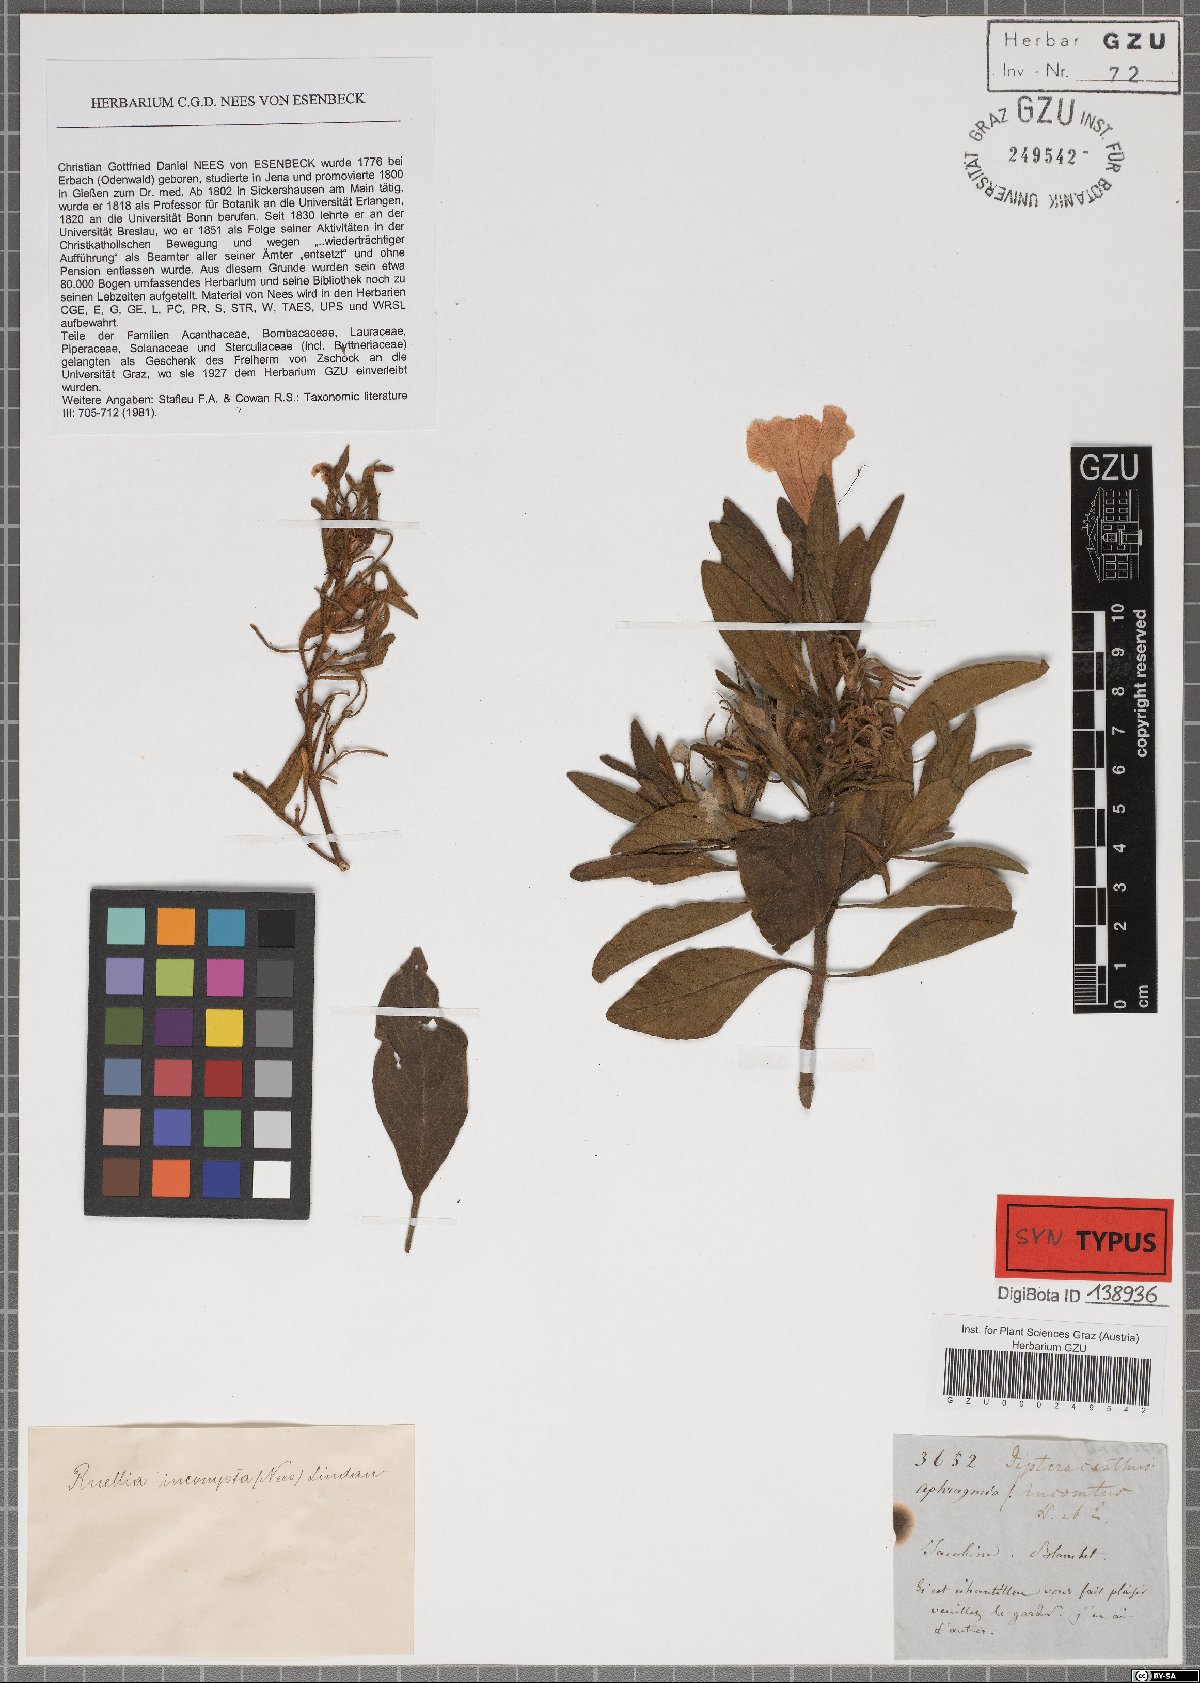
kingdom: Plantae
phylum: Tracheophyta
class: Magnoliopsida
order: Lamiales
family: Acanthaceae
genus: Ruellia
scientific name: Ruellia incomta
